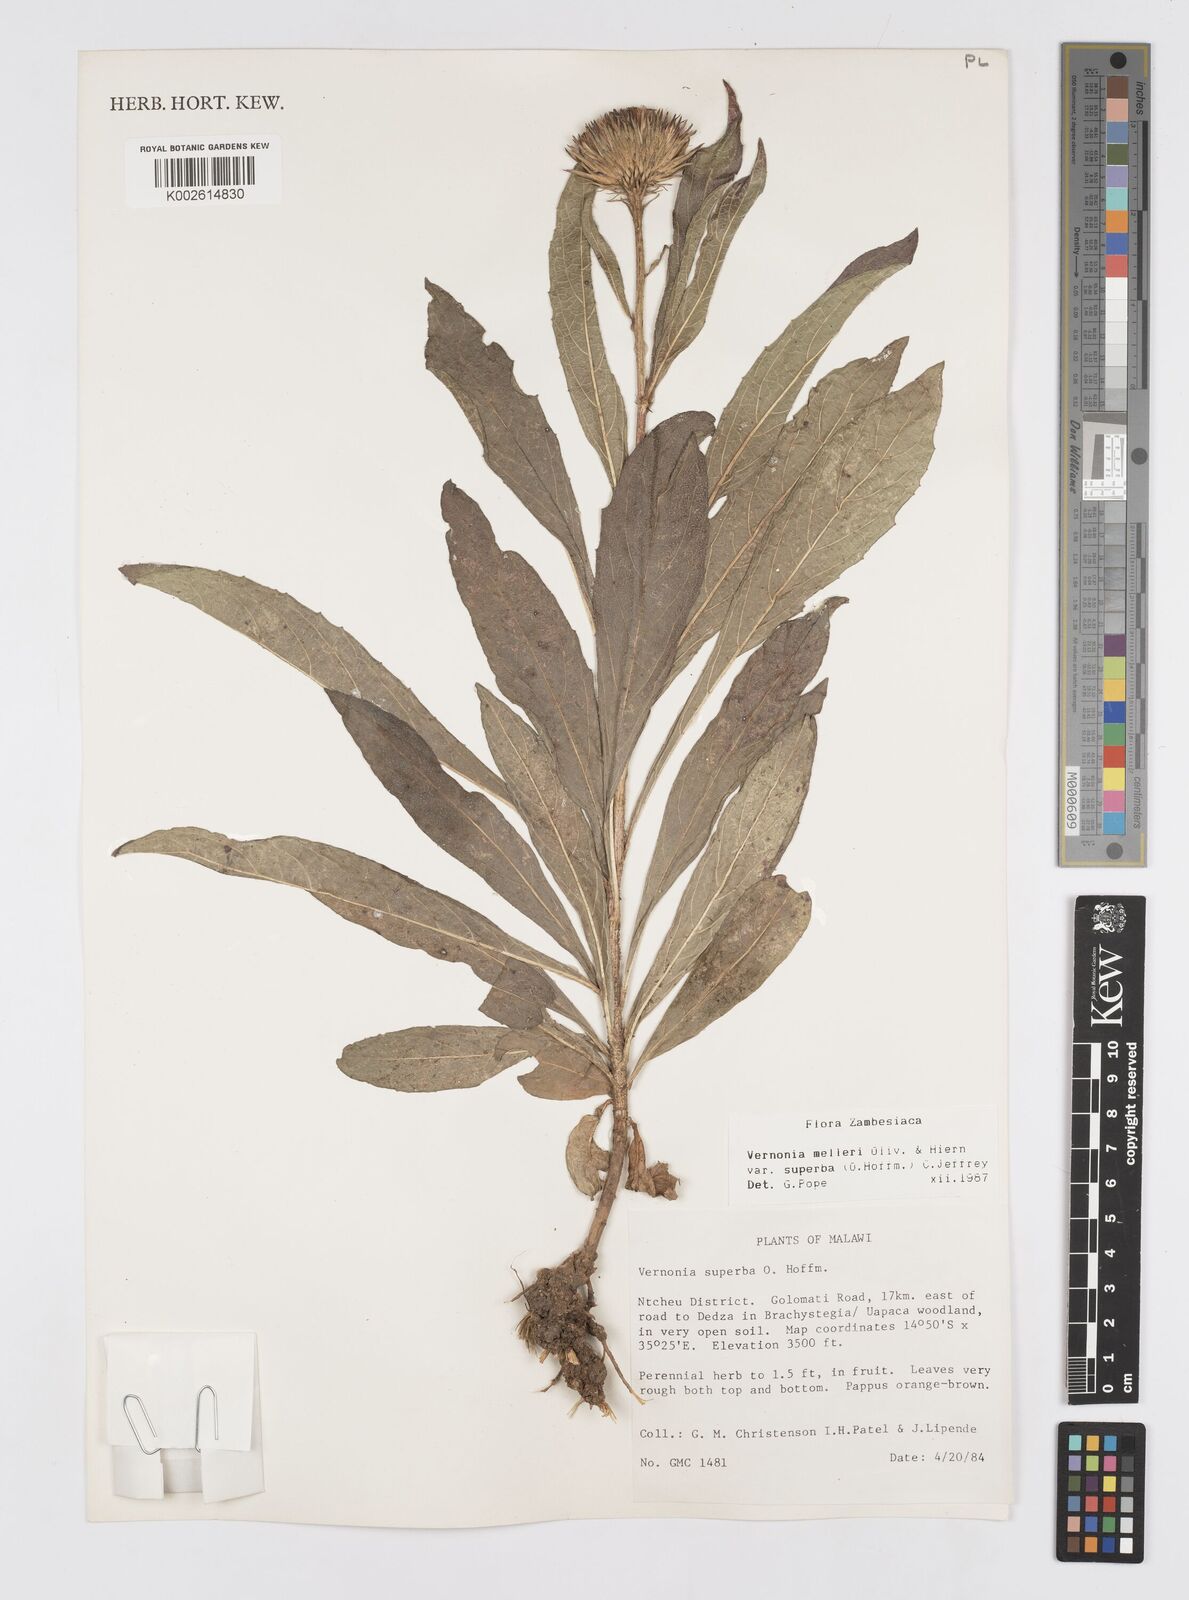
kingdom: Plantae
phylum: Tracheophyta
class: Magnoliopsida
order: Asterales
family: Asteraceae
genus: Linzia
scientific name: Linzia melleri
